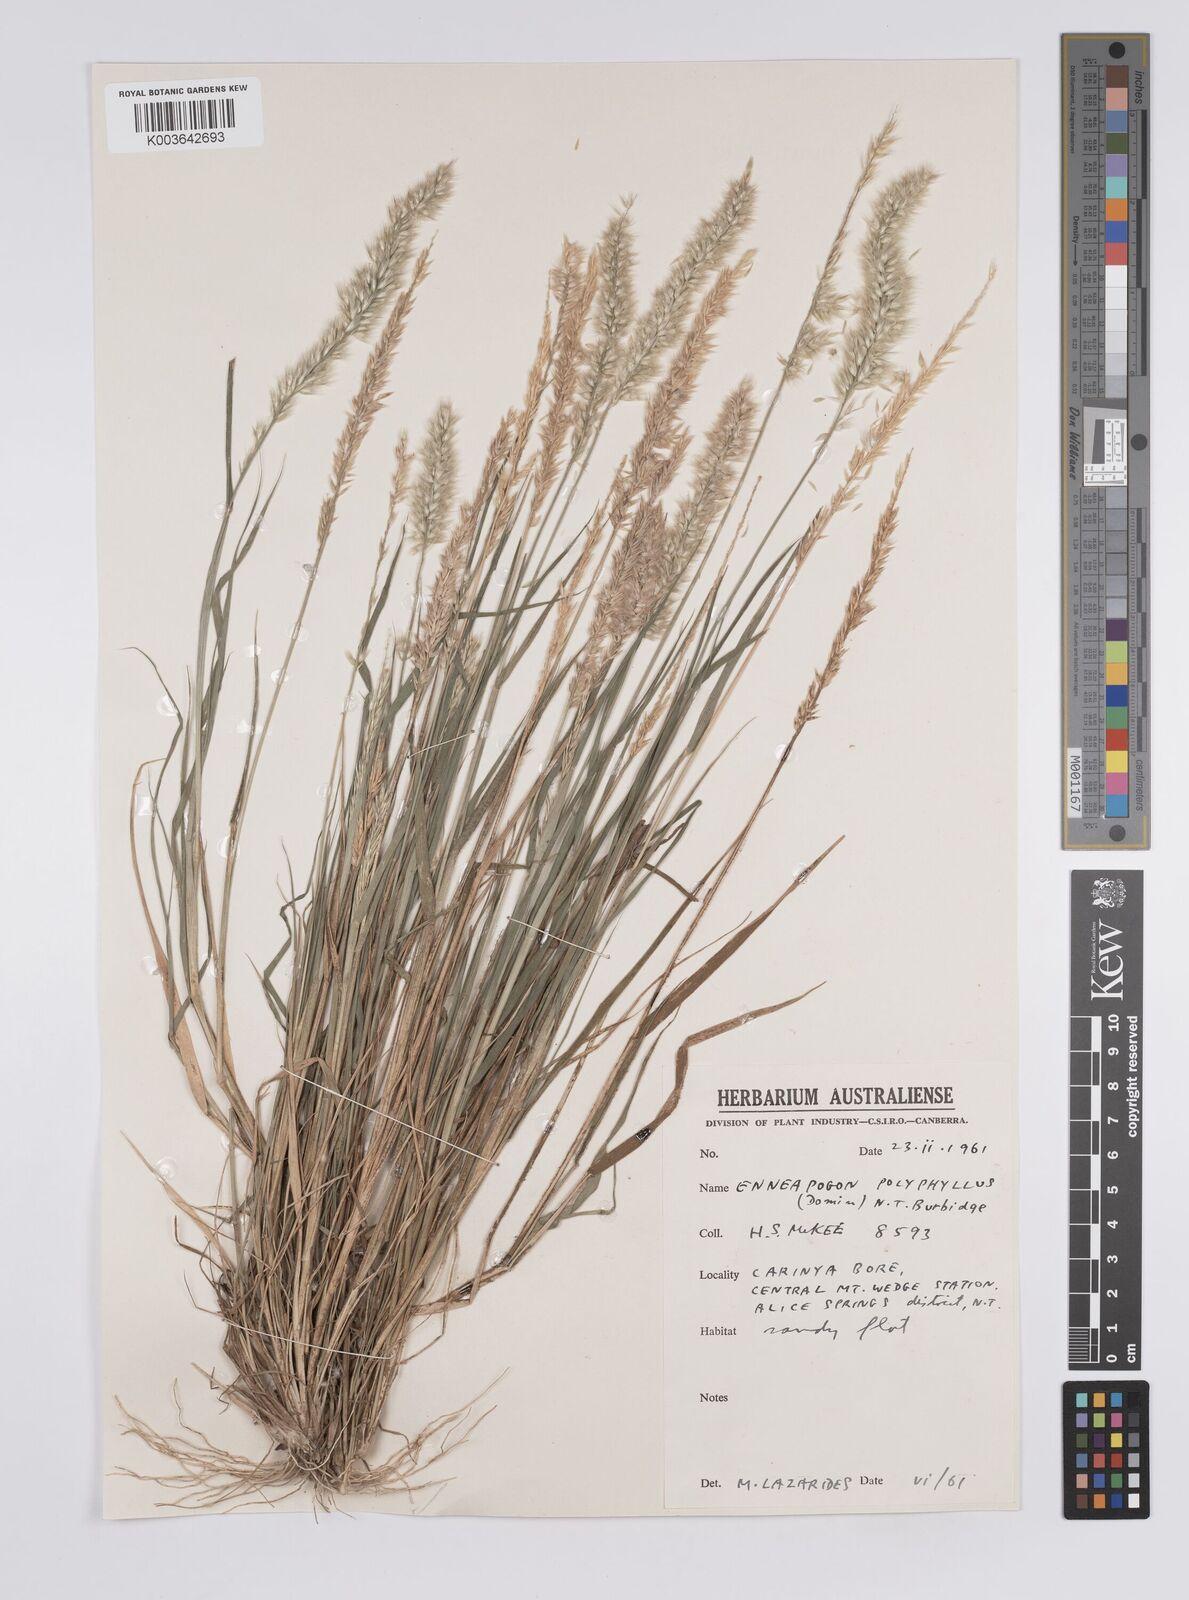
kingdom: Plantae
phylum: Tracheophyta
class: Liliopsida
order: Poales
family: Poaceae
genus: Enneapogon
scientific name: Enneapogon polyphyllus
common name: Leafy nineawn
